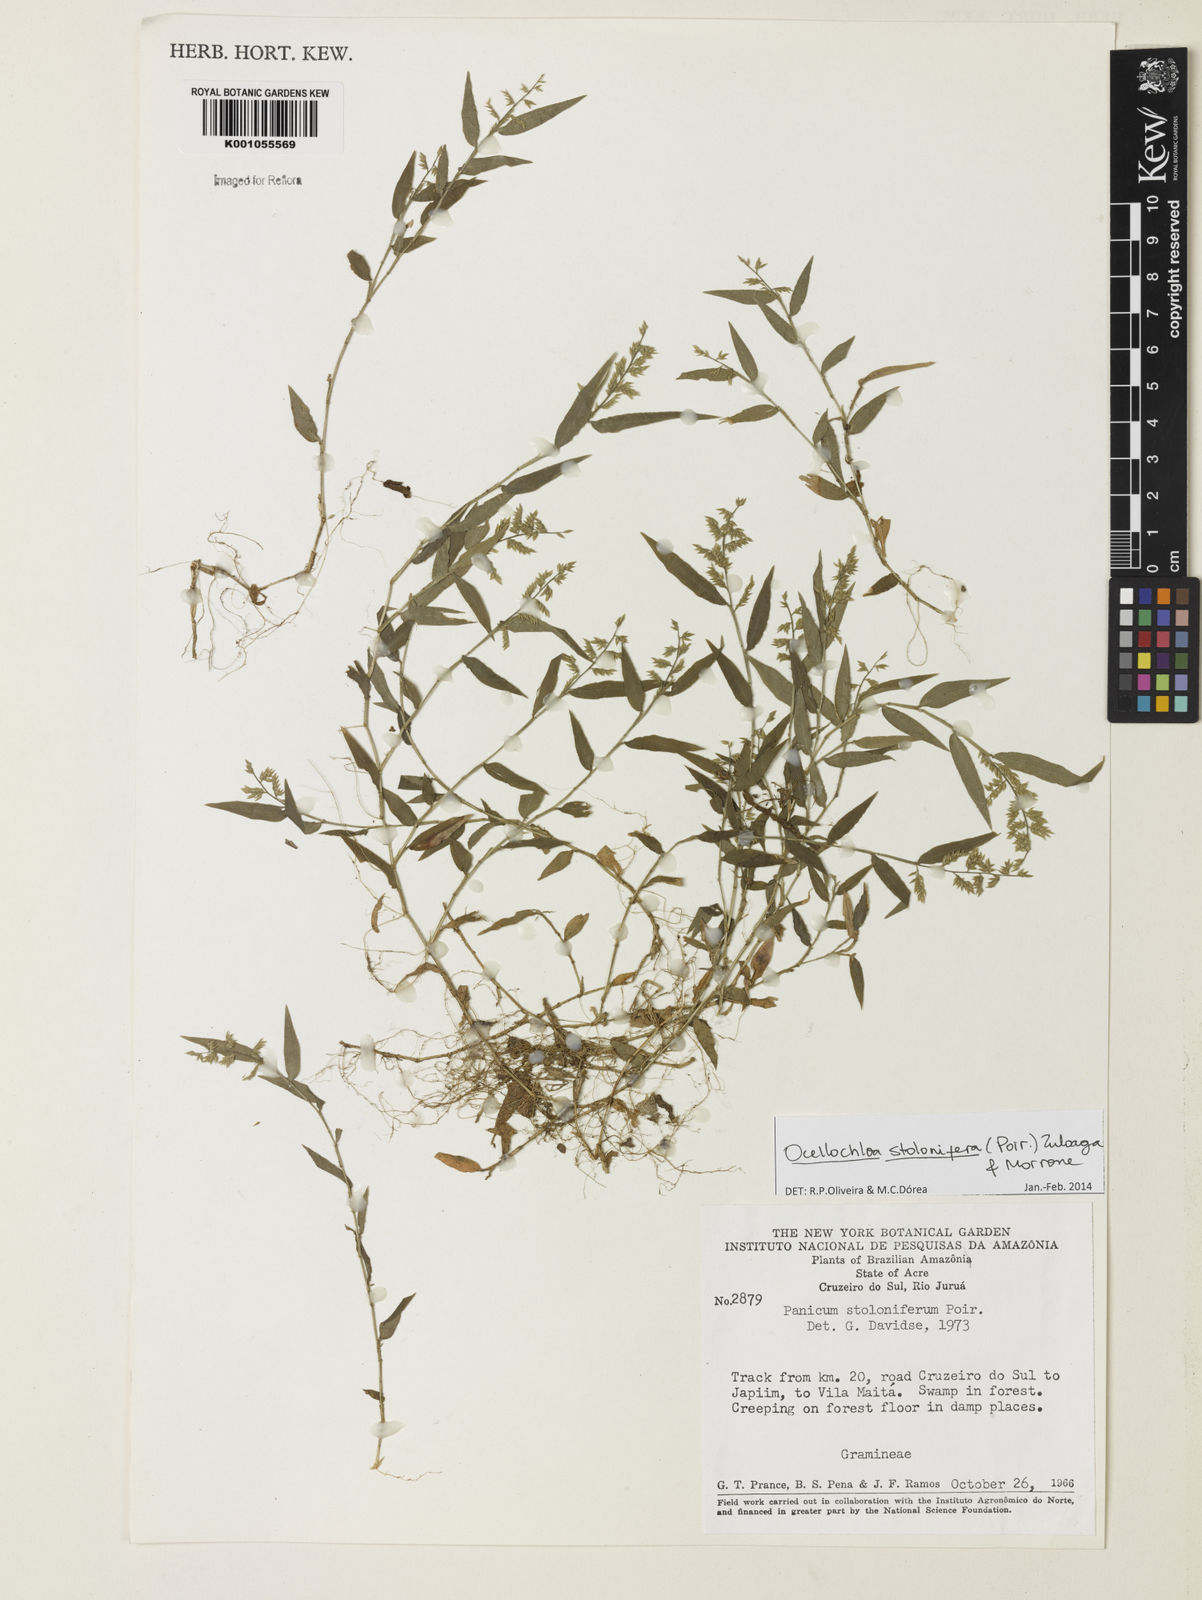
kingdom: Plantae
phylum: Tracheophyta
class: Liliopsida
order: Poales
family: Poaceae
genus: Ocellochloa
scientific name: Ocellochloa stolonifera
